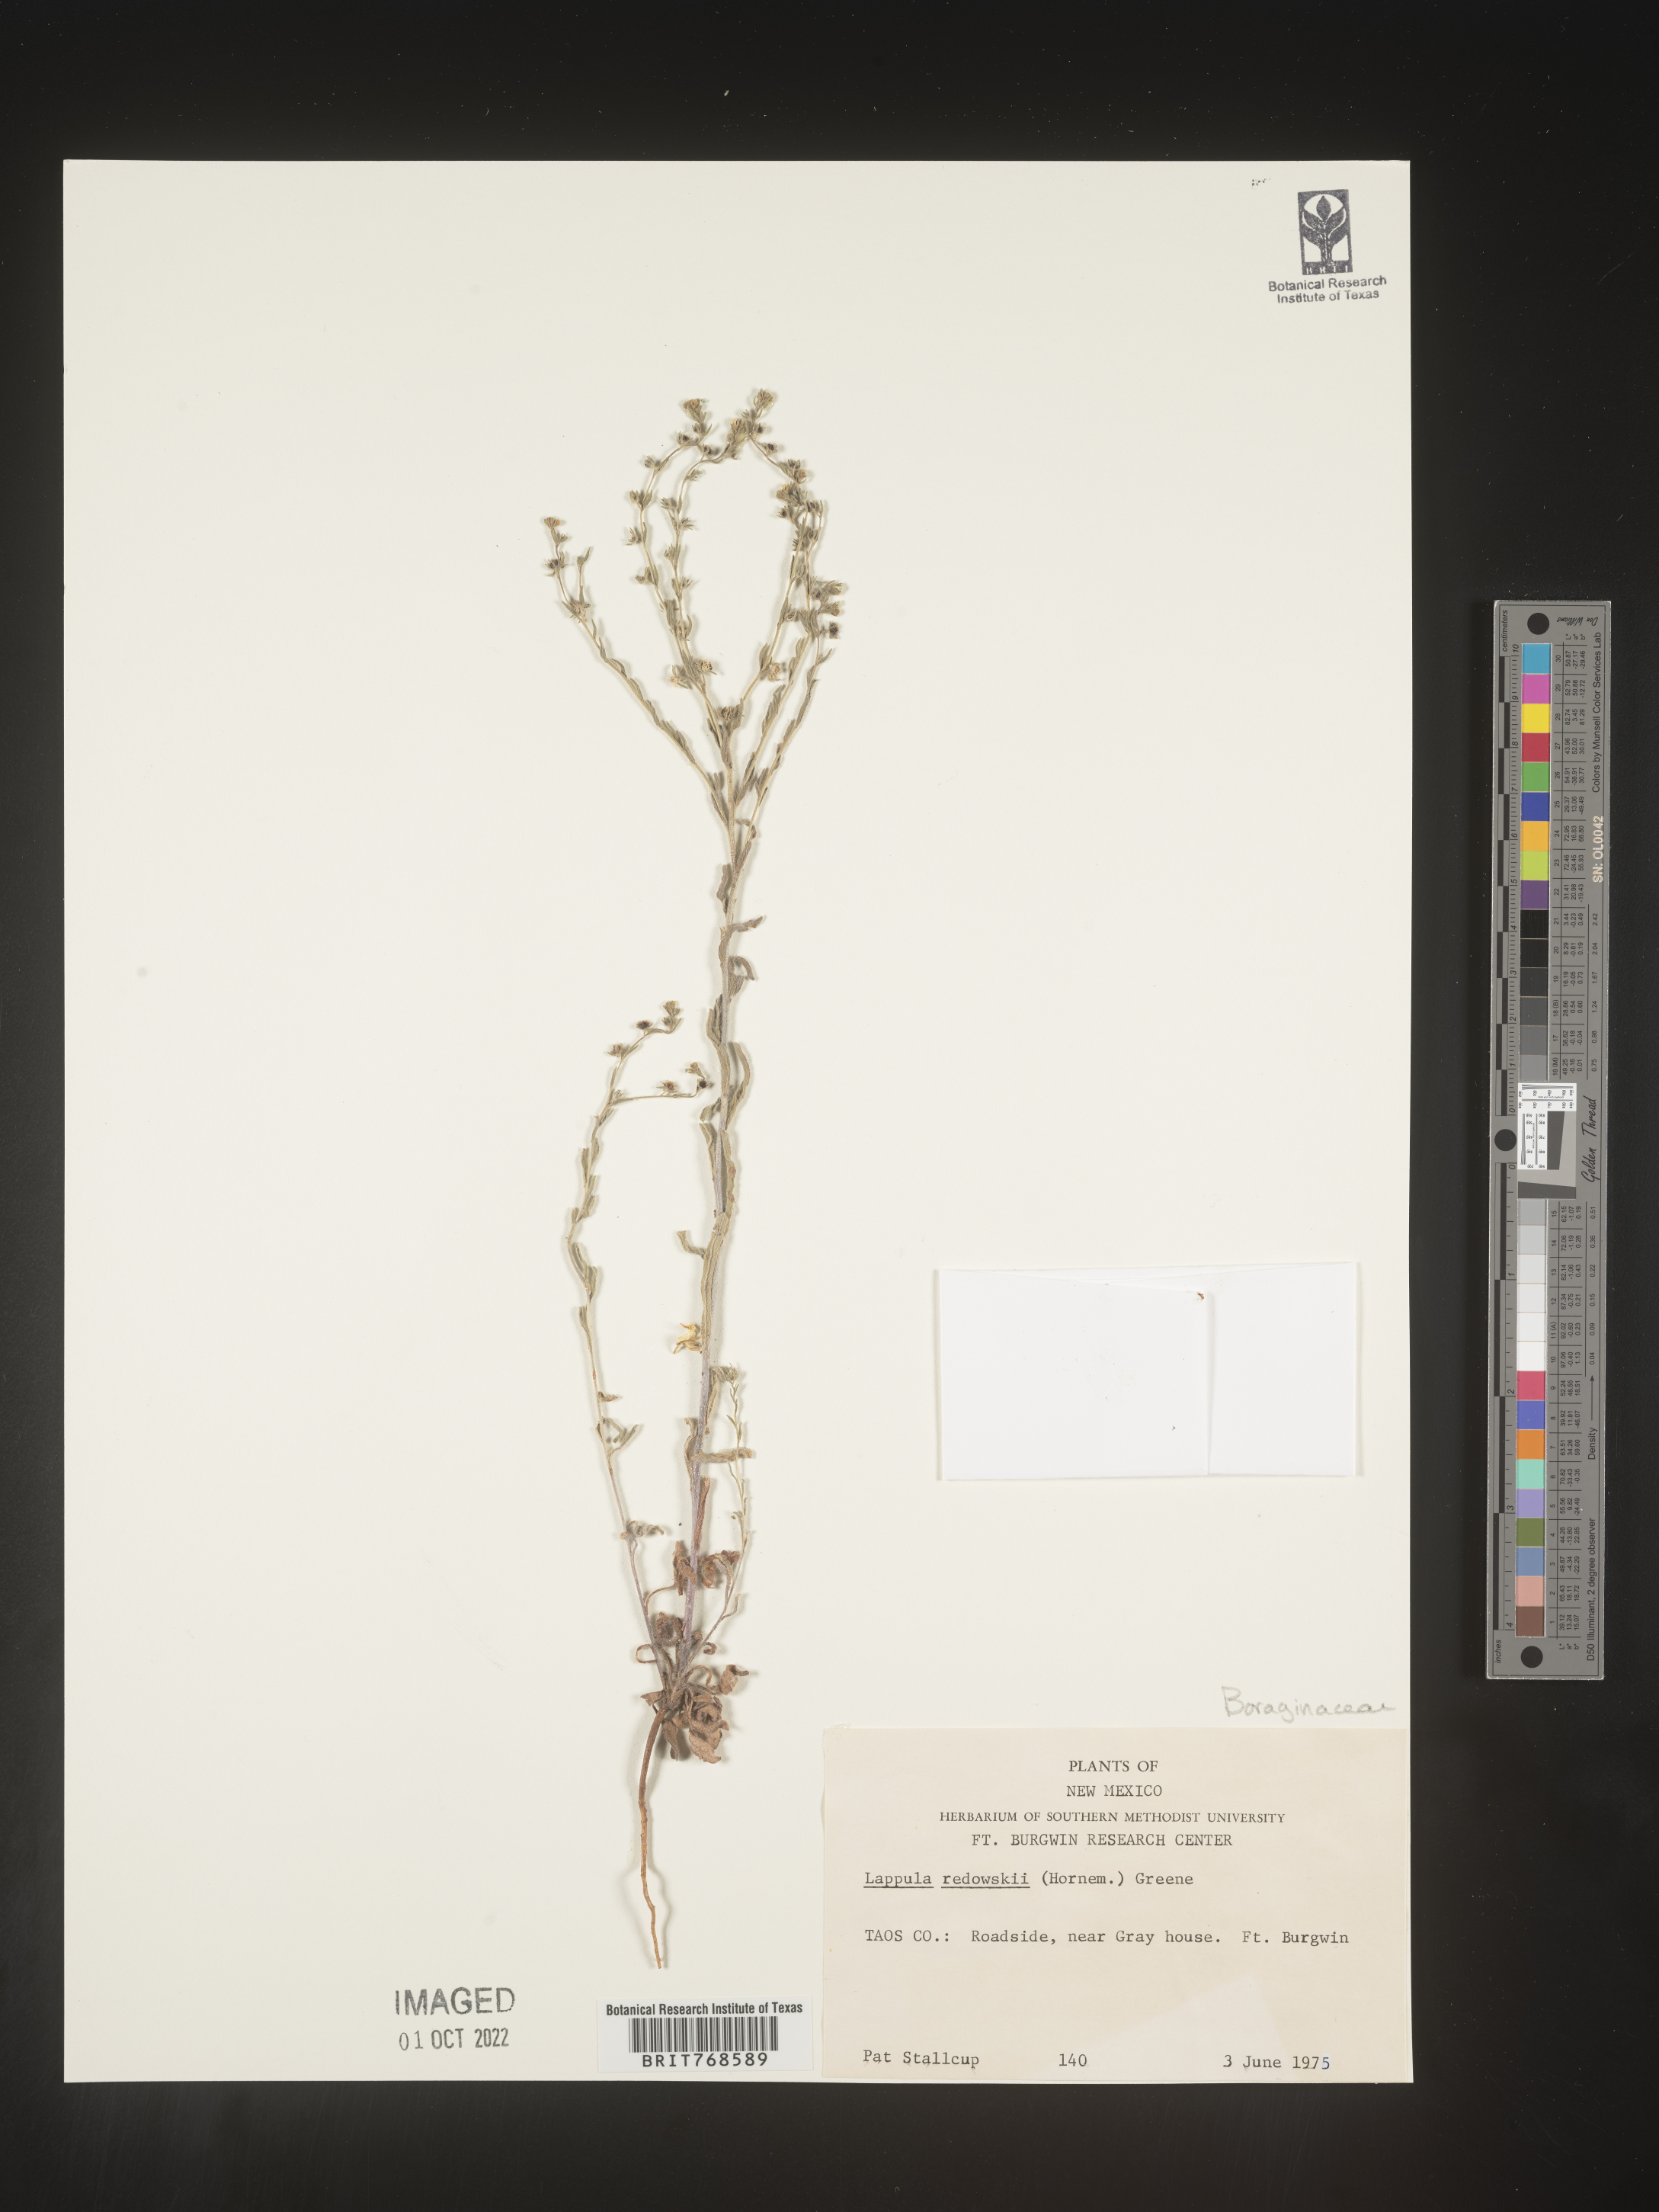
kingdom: Plantae
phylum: Tracheophyta
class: Magnoliopsida
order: Boraginales
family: Boraginaceae
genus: Lappula
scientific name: Lappula redowskii
